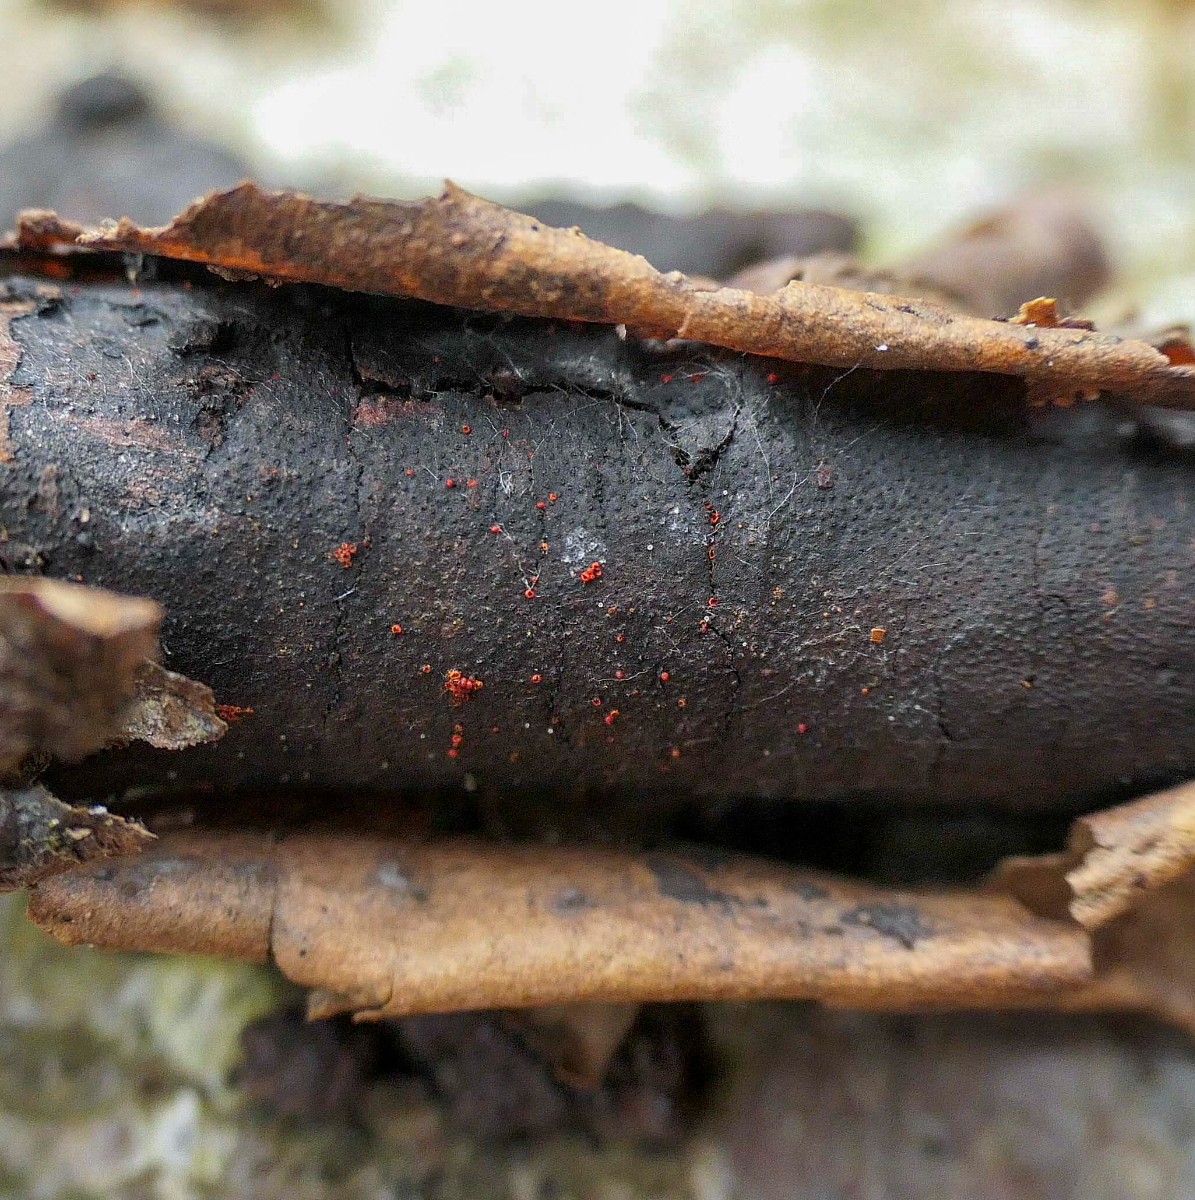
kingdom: Fungi
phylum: Ascomycota
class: Sordariomycetes
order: Hypocreales
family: Nectriaceae
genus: Dialonectria
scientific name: Dialonectria episphaeria
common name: kulskorpe-cinnobersvamp
